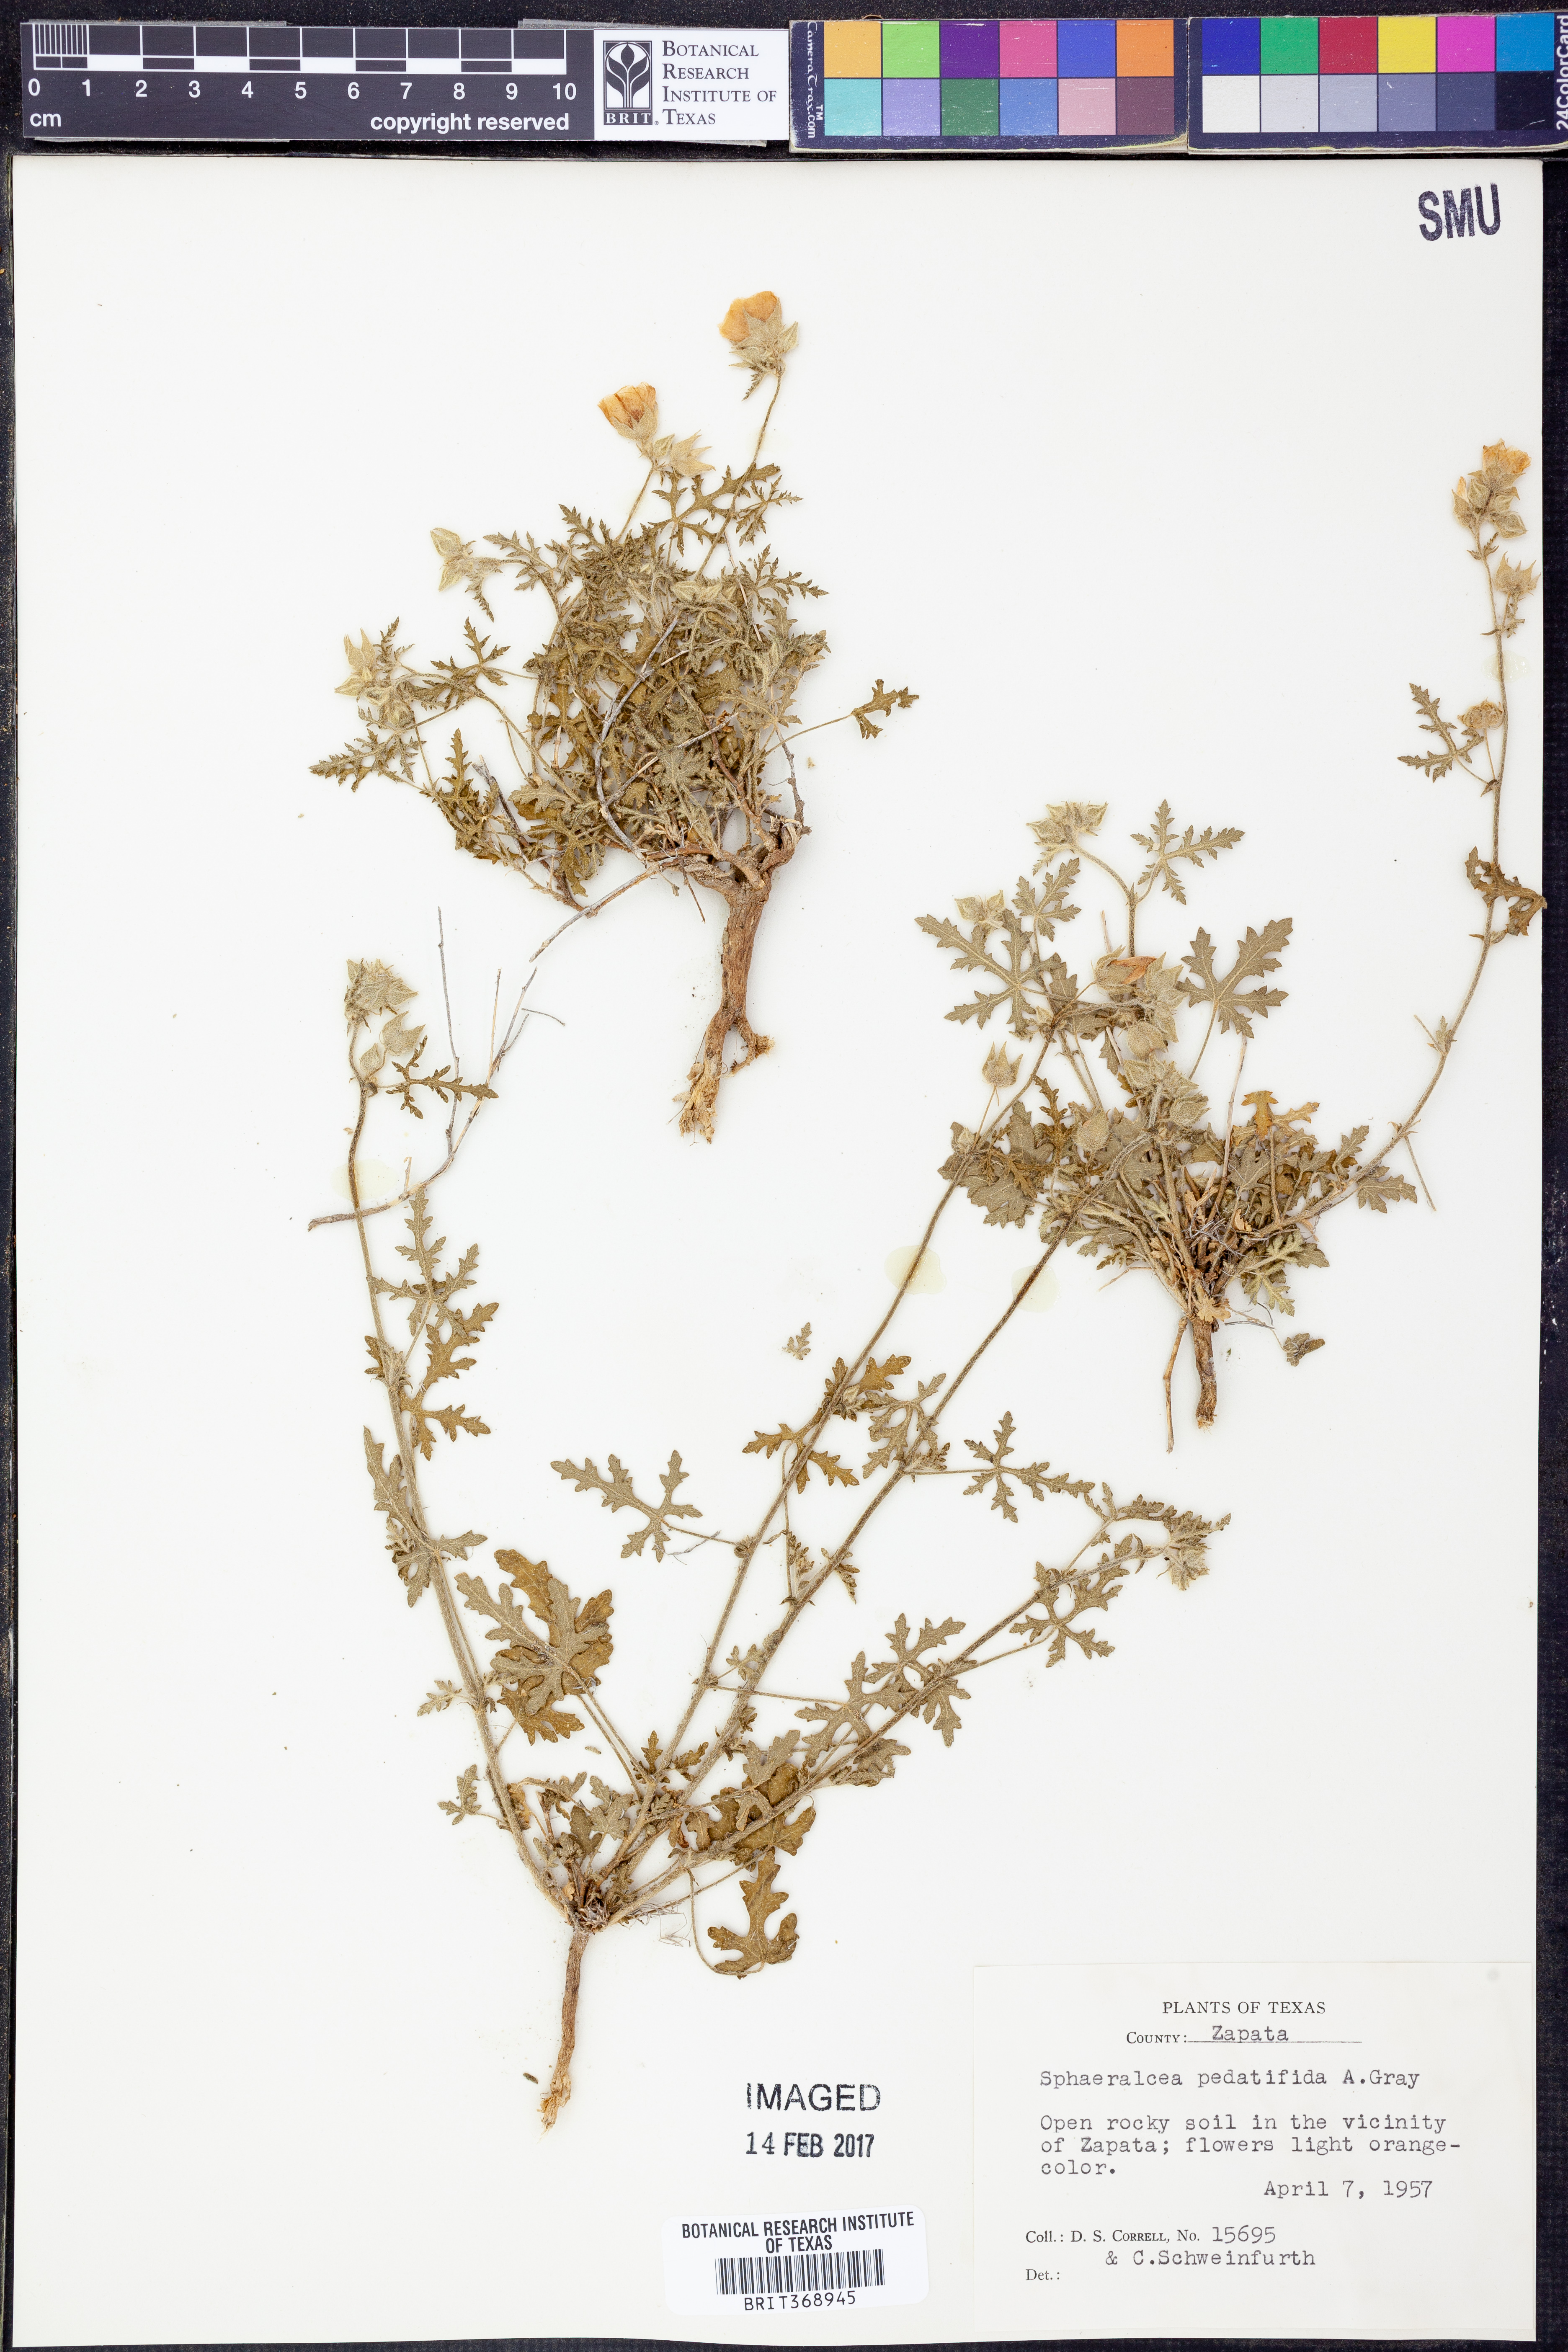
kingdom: Plantae
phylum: Tracheophyta
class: Magnoliopsida
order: Malvales
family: Malvaceae
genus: Sphaeralcea
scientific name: Sphaeralcea pedatifida
